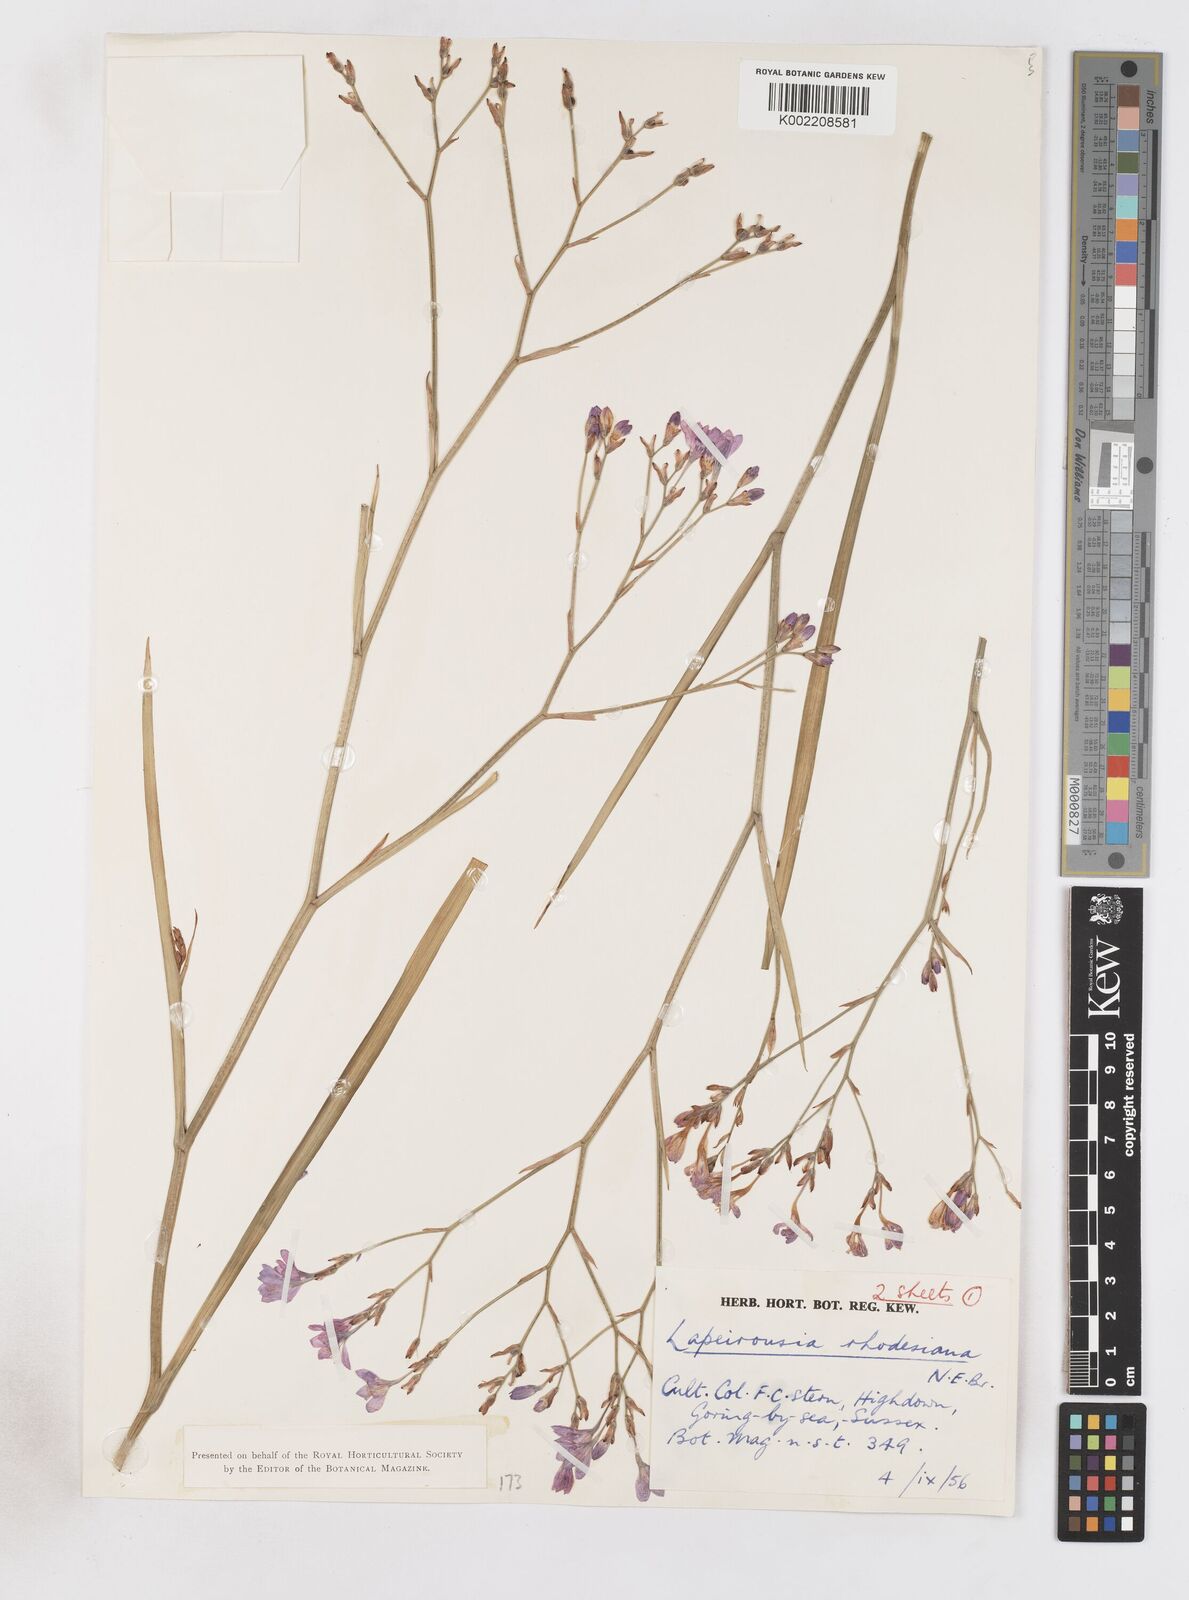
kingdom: Plantae
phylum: Tracheophyta
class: Liliopsida
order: Asparagales
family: Iridaceae
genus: Lapeirousia
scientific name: Lapeirousia
